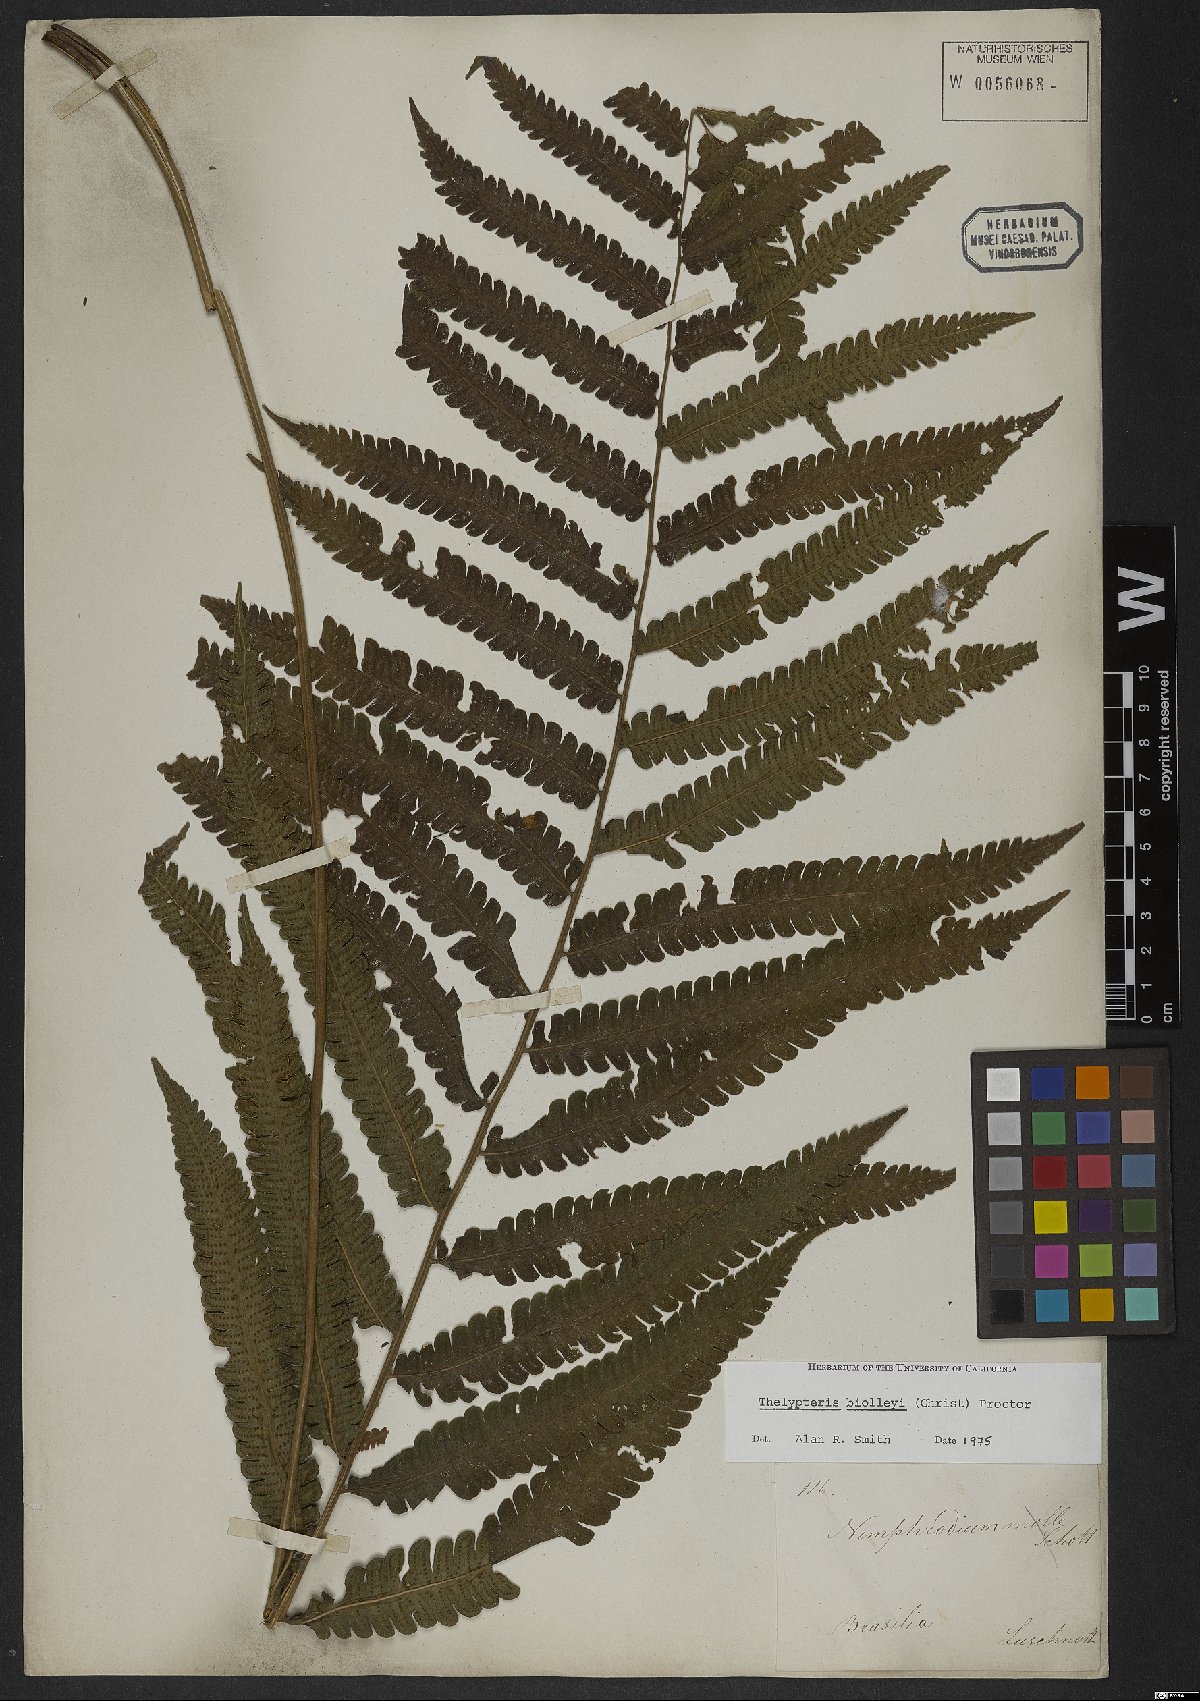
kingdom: Plantae
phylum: Tracheophyta
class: Polypodiopsida
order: Polypodiales
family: Thelypteridaceae
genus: Goniopteris
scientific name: Goniopteris biolleyi
